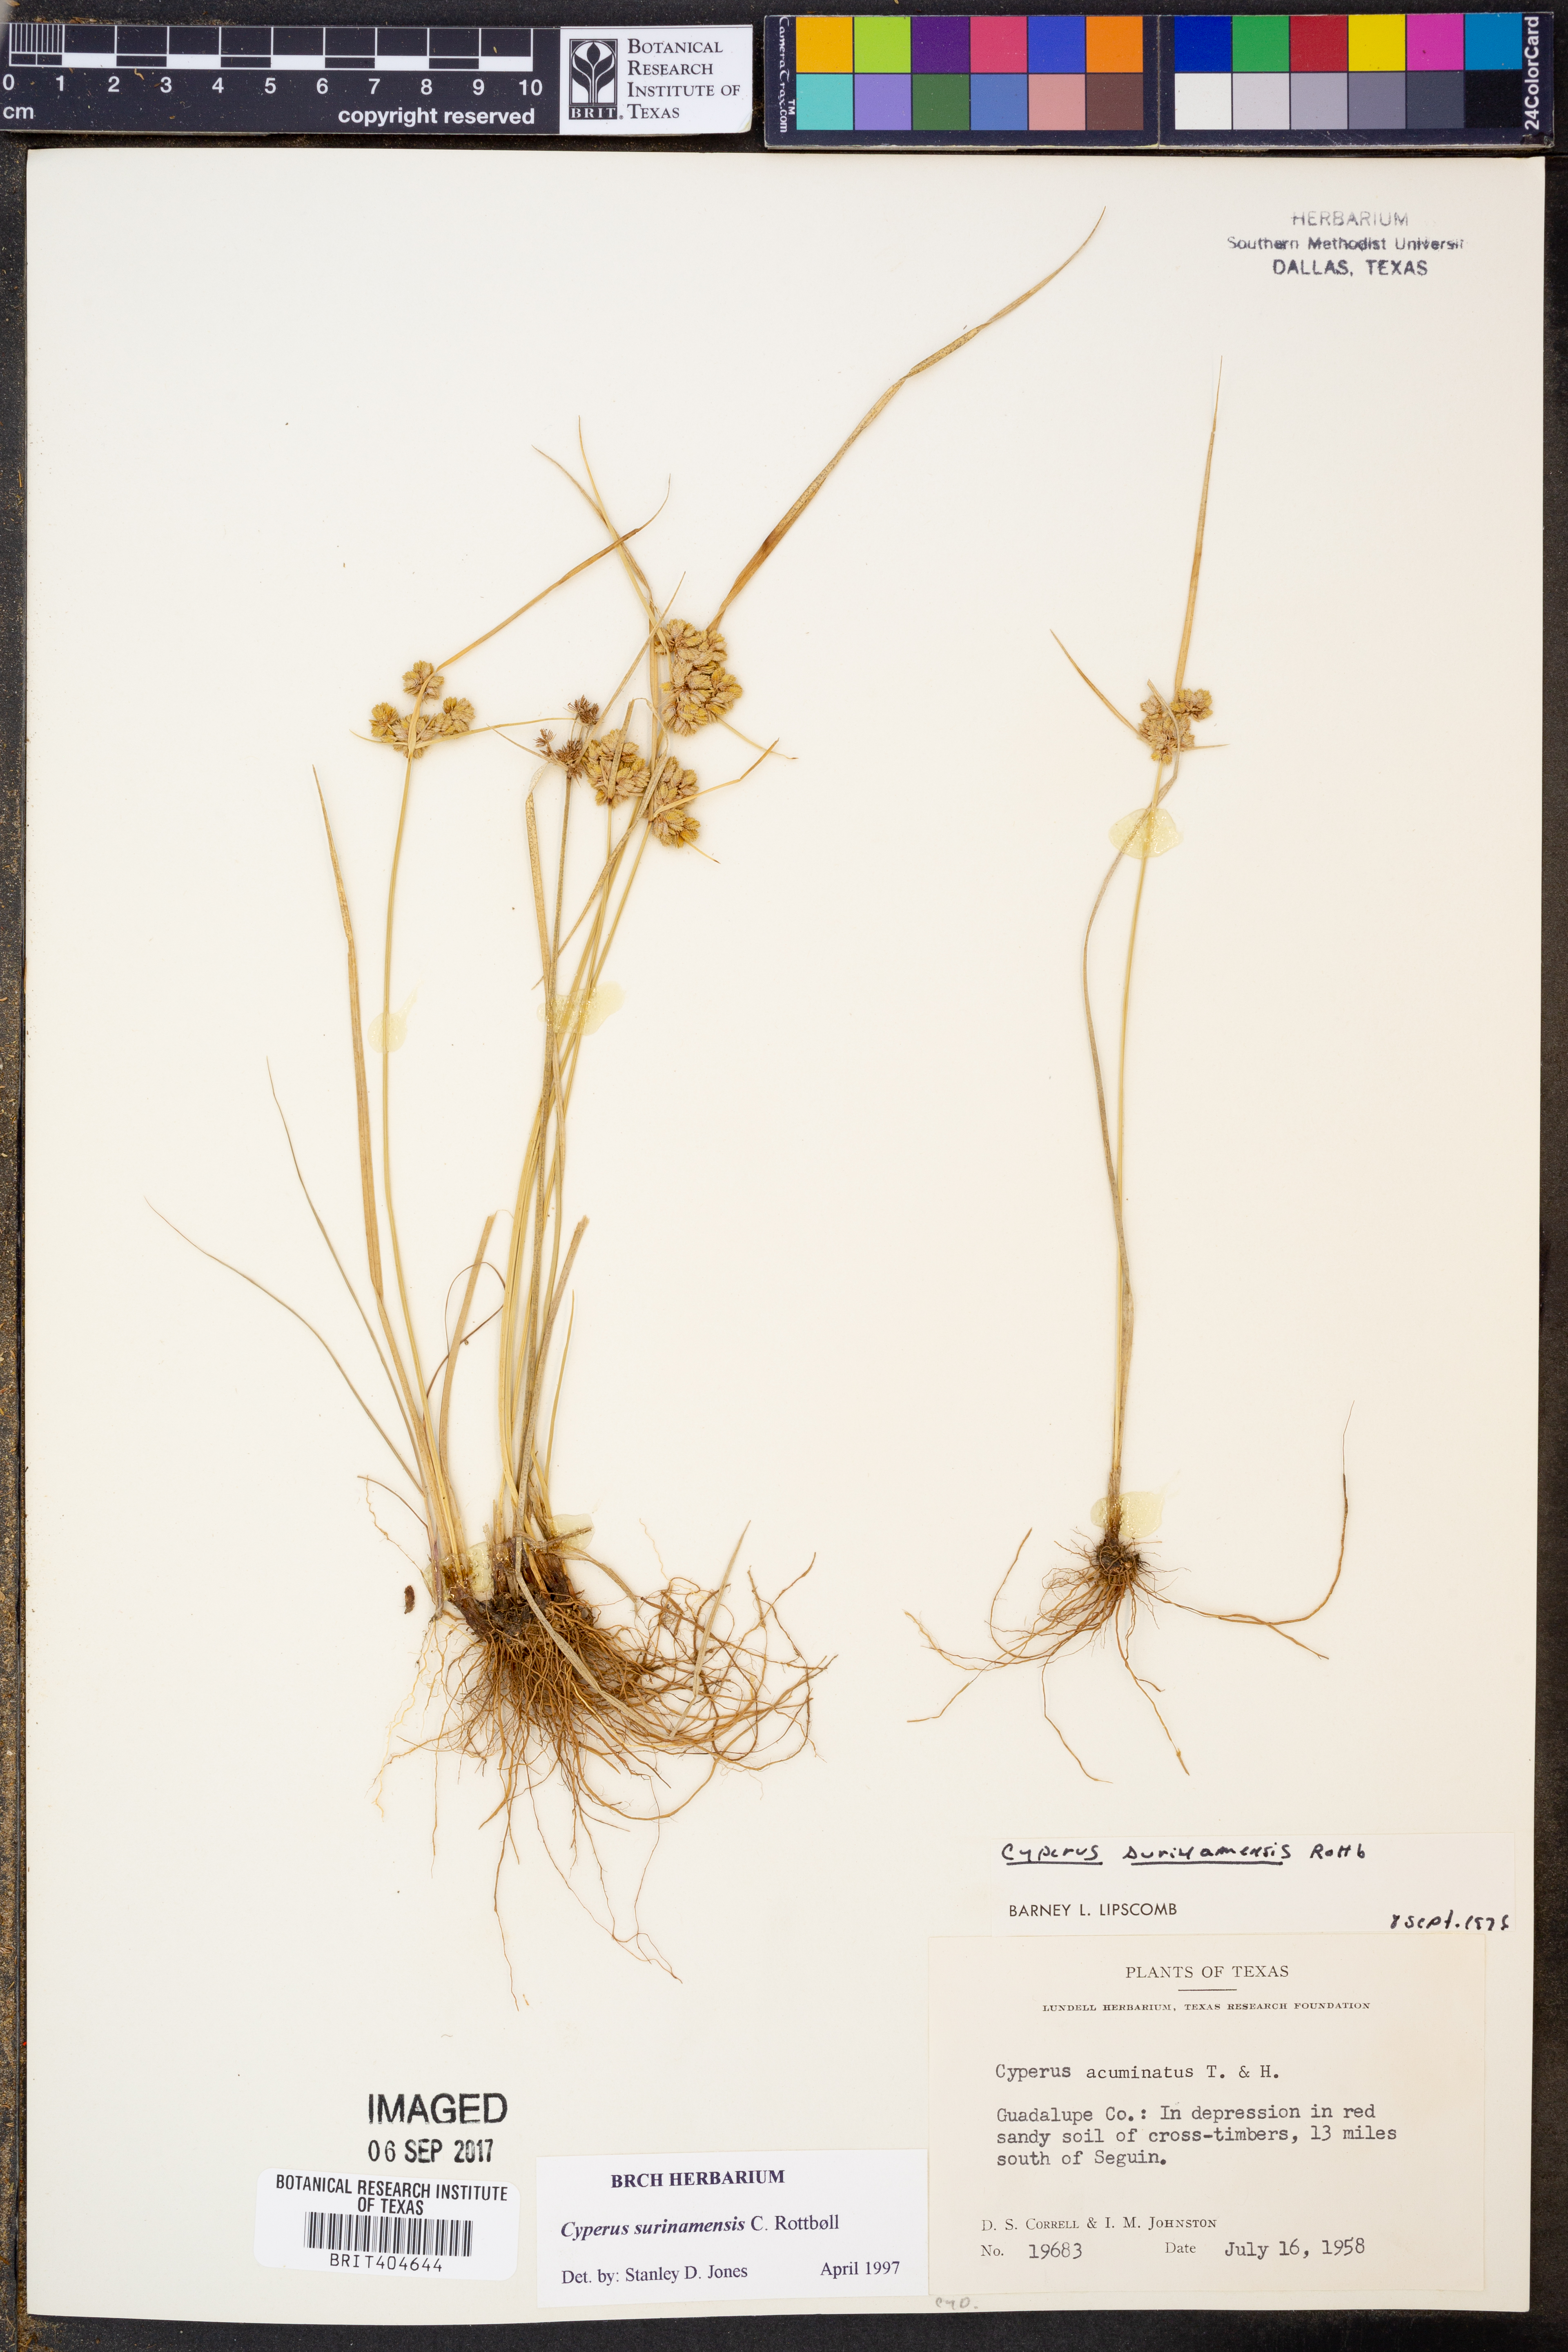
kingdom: Plantae
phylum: Tracheophyta
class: Liliopsida
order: Poales
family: Cyperaceae
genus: Cyperus
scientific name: Cyperus surinamensis
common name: Tropical flat sedge
